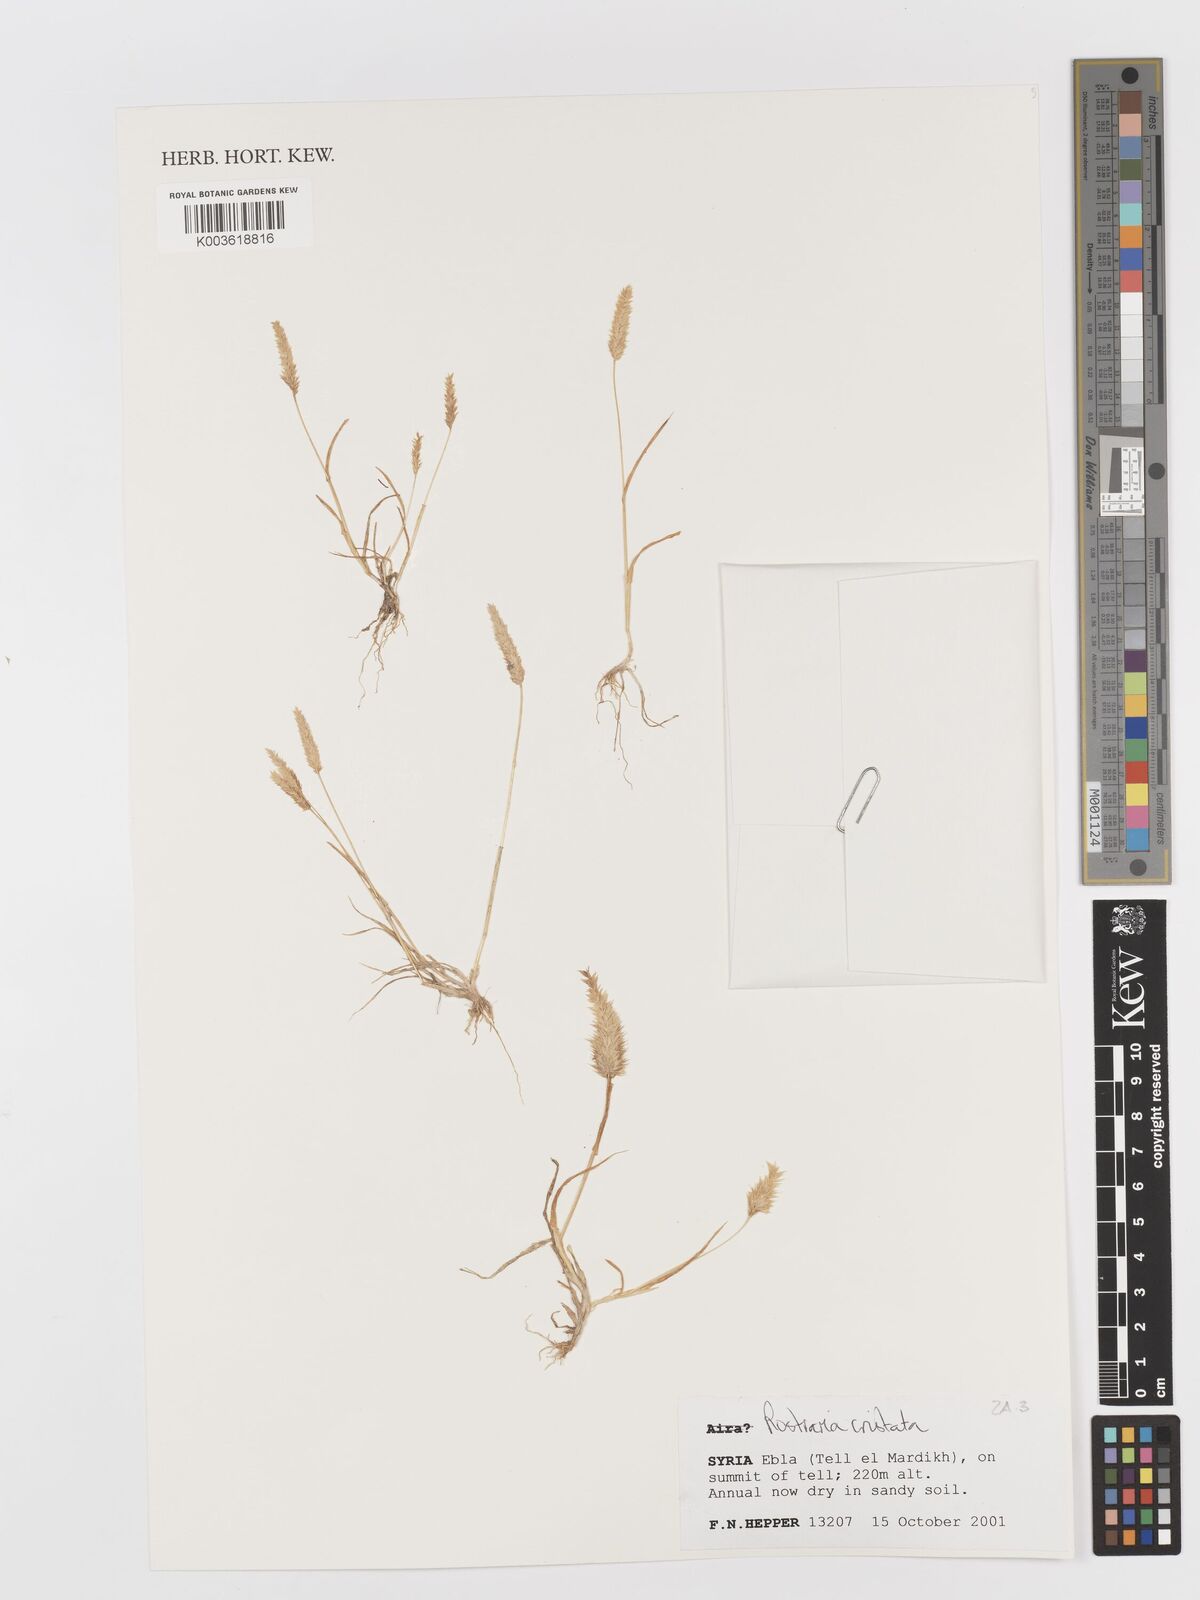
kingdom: Plantae
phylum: Tracheophyta
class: Liliopsida
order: Poales
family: Poaceae
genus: Rostraria
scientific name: Rostraria cristata
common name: Mediterranean hair-grass
